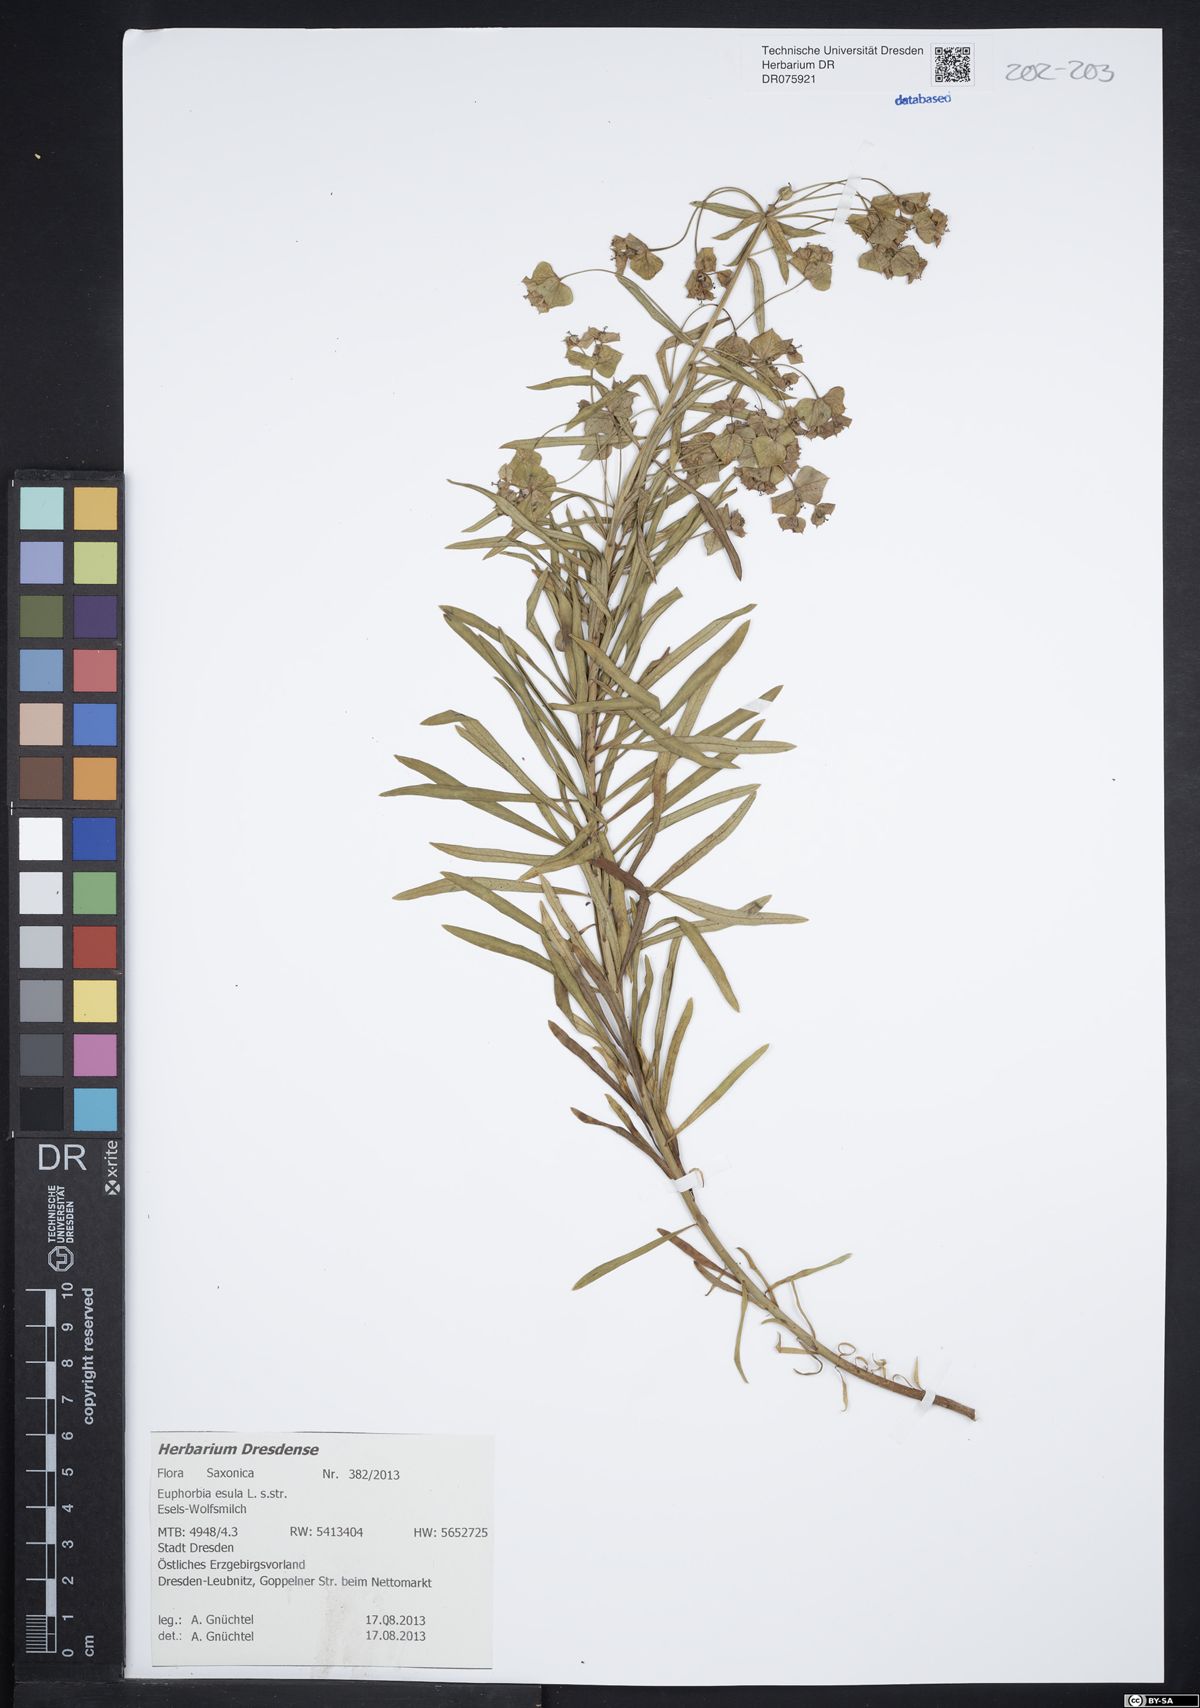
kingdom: Plantae
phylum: Tracheophyta
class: Magnoliopsida
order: Malpighiales
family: Euphorbiaceae
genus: Euphorbia
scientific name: Euphorbia esula
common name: Leafy spurge
